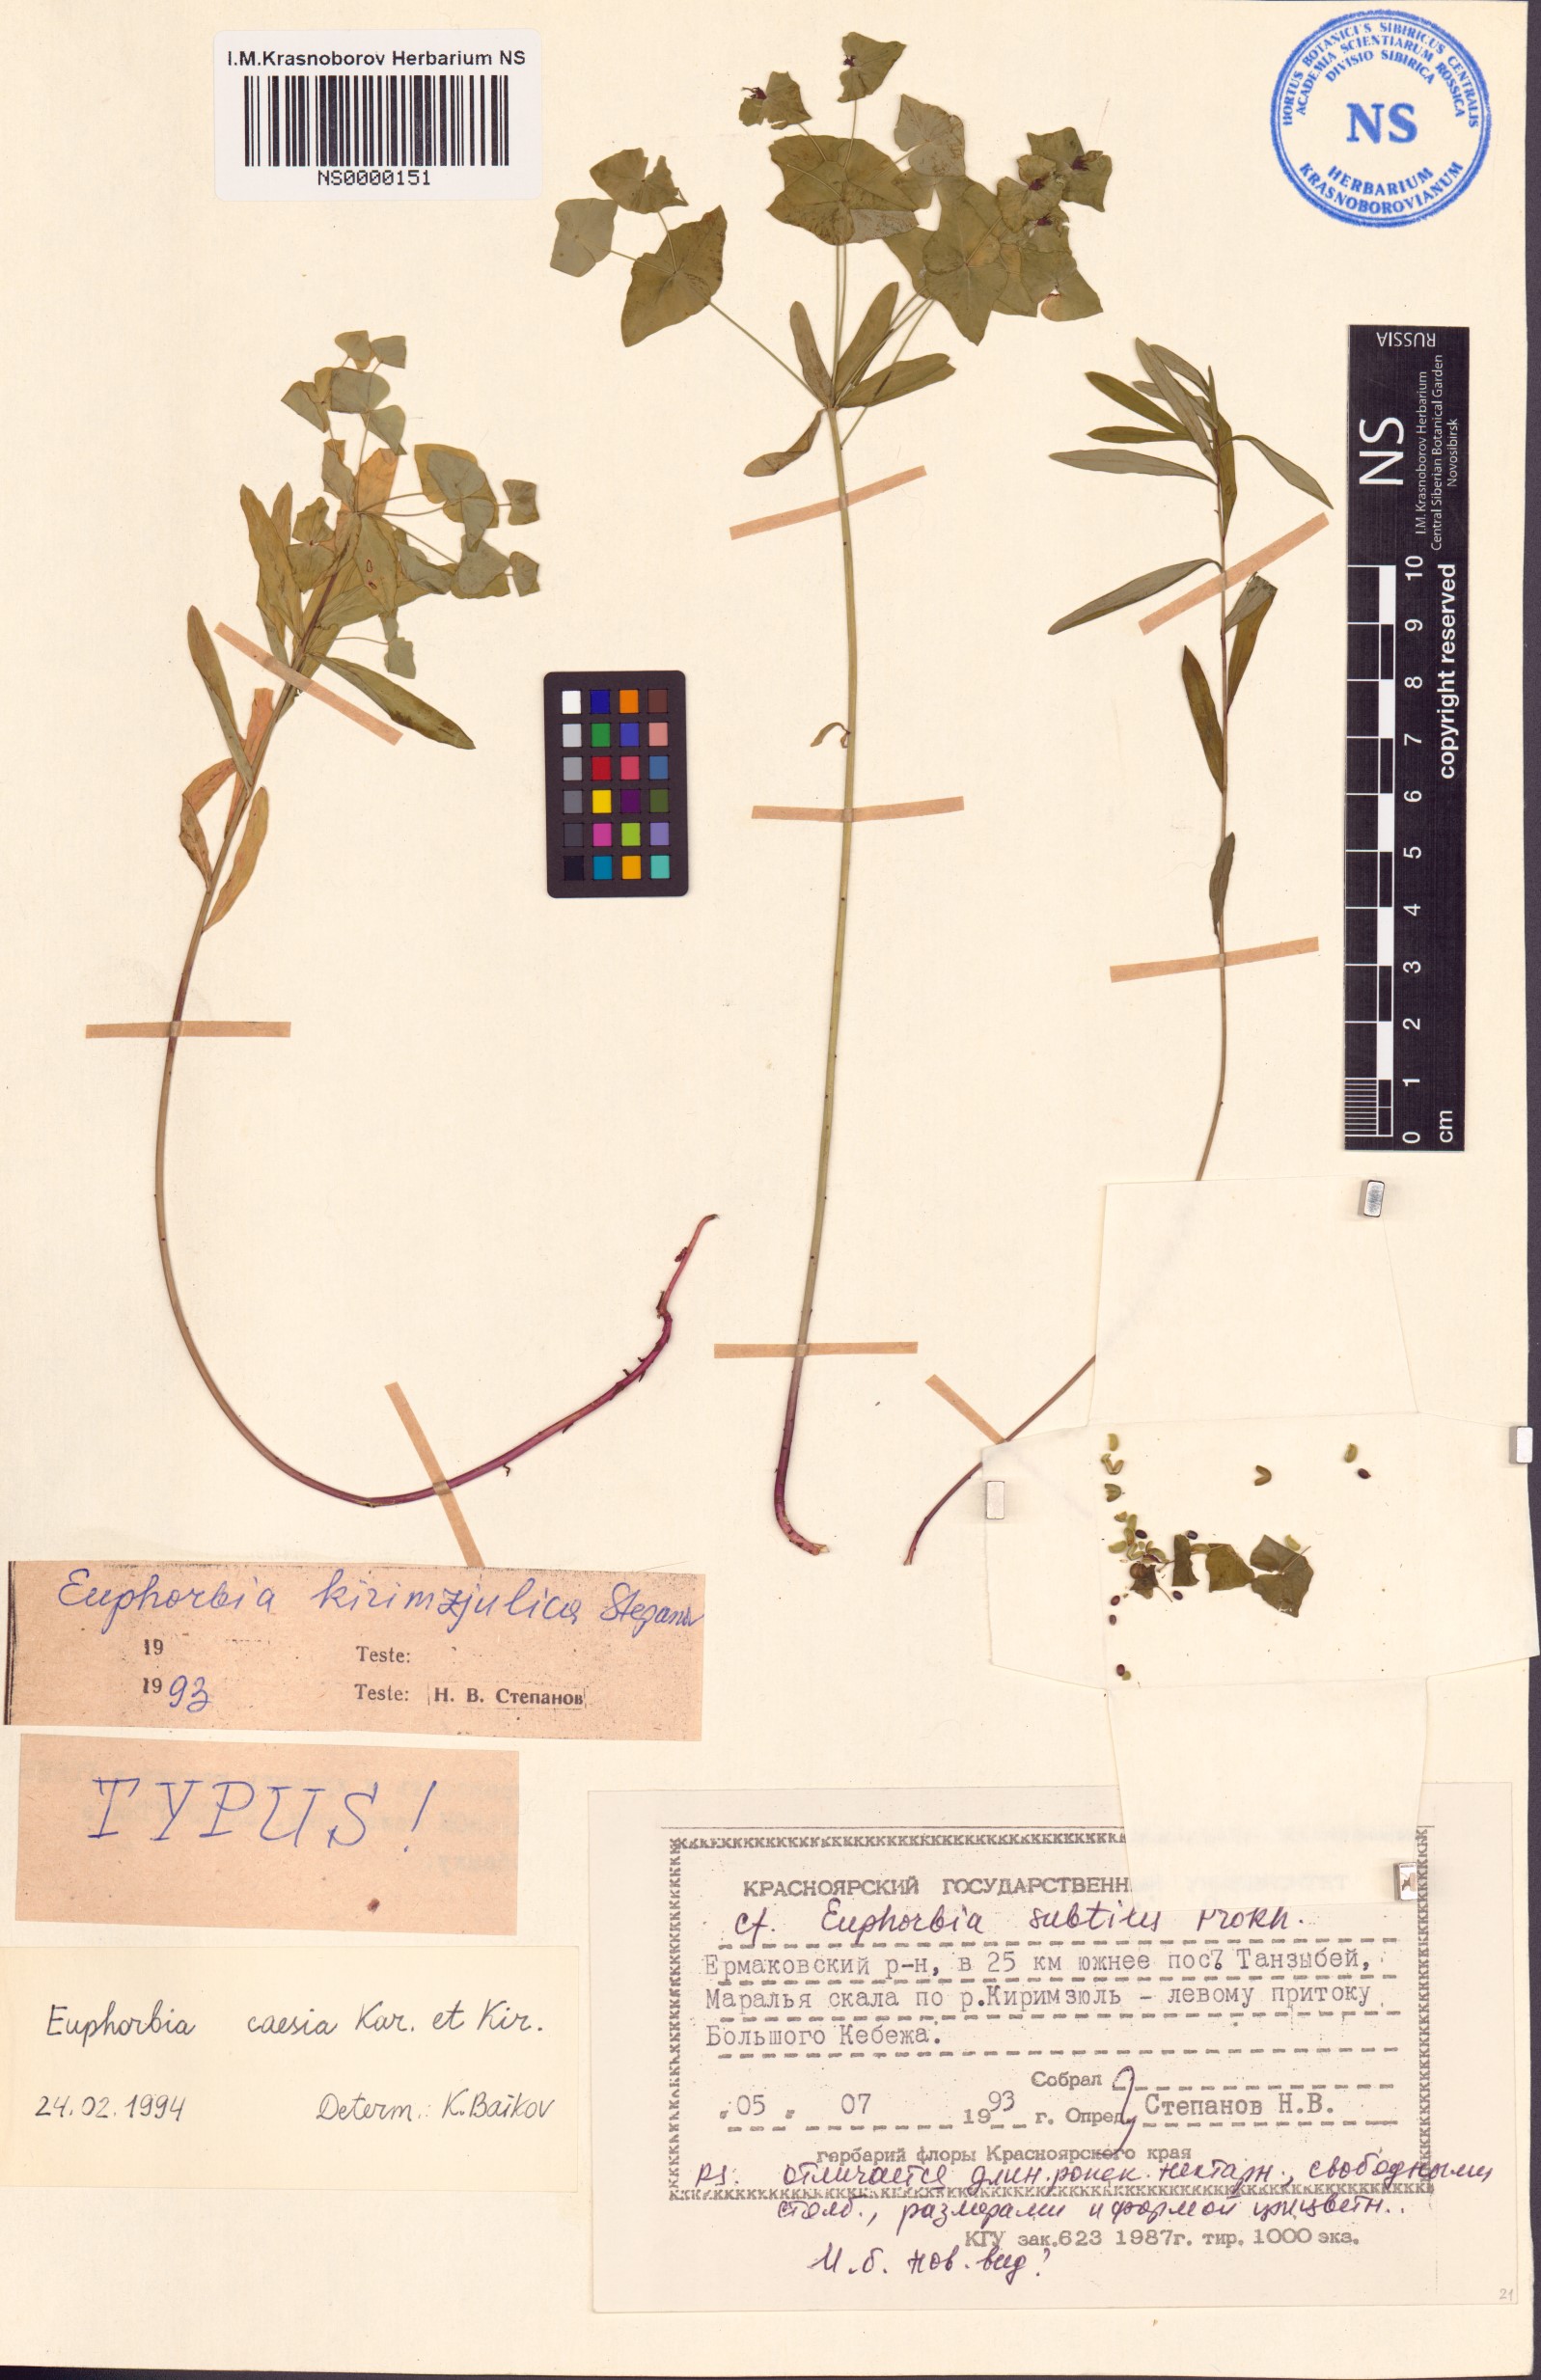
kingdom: Plantae
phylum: Tracheophyta
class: Magnoliopsida
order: Malpighiales
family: Euphorbiaceae
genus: Euphorbia
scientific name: Euphorbia caesia
